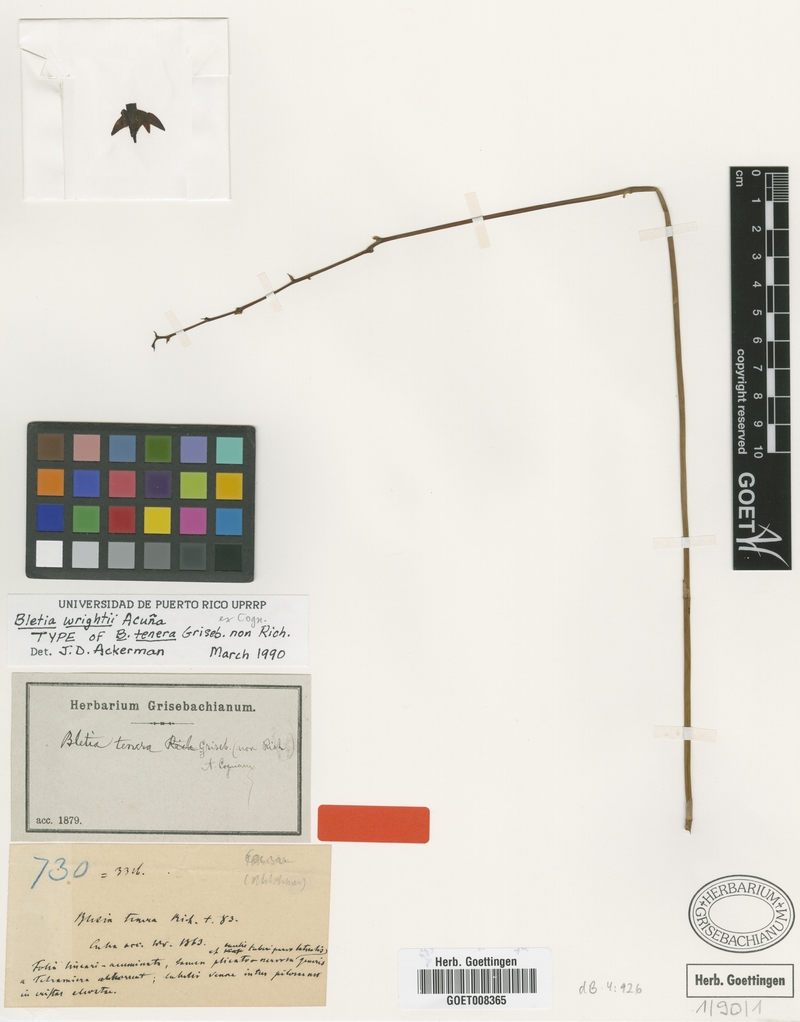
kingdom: Plantae
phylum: Tracheophyta
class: Liliopsida
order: Asparagales
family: Orchidaceae
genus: Bletia
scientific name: Bletia wrightii
